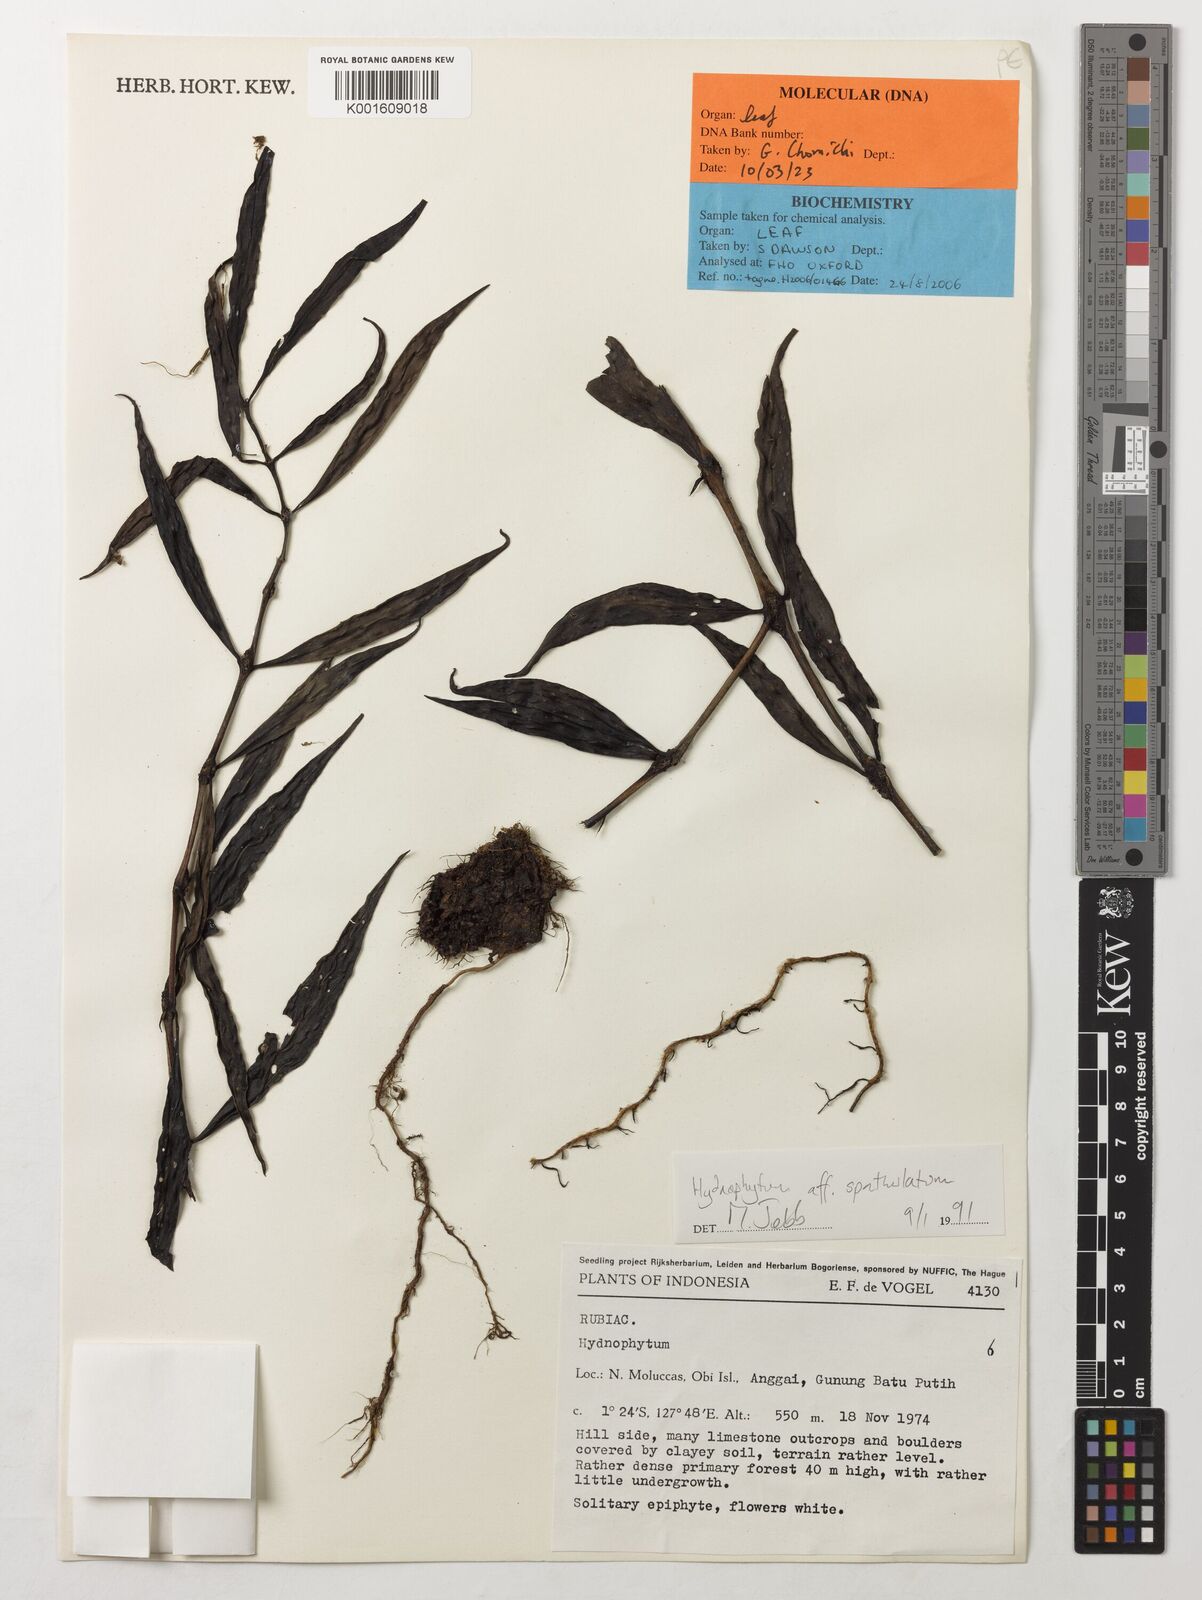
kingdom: Plantae
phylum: Tracheophyta
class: Magnoliopsida
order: Gentianales
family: Rubiaceae
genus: Hydnophytum
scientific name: Hydnophytum spathulatum
